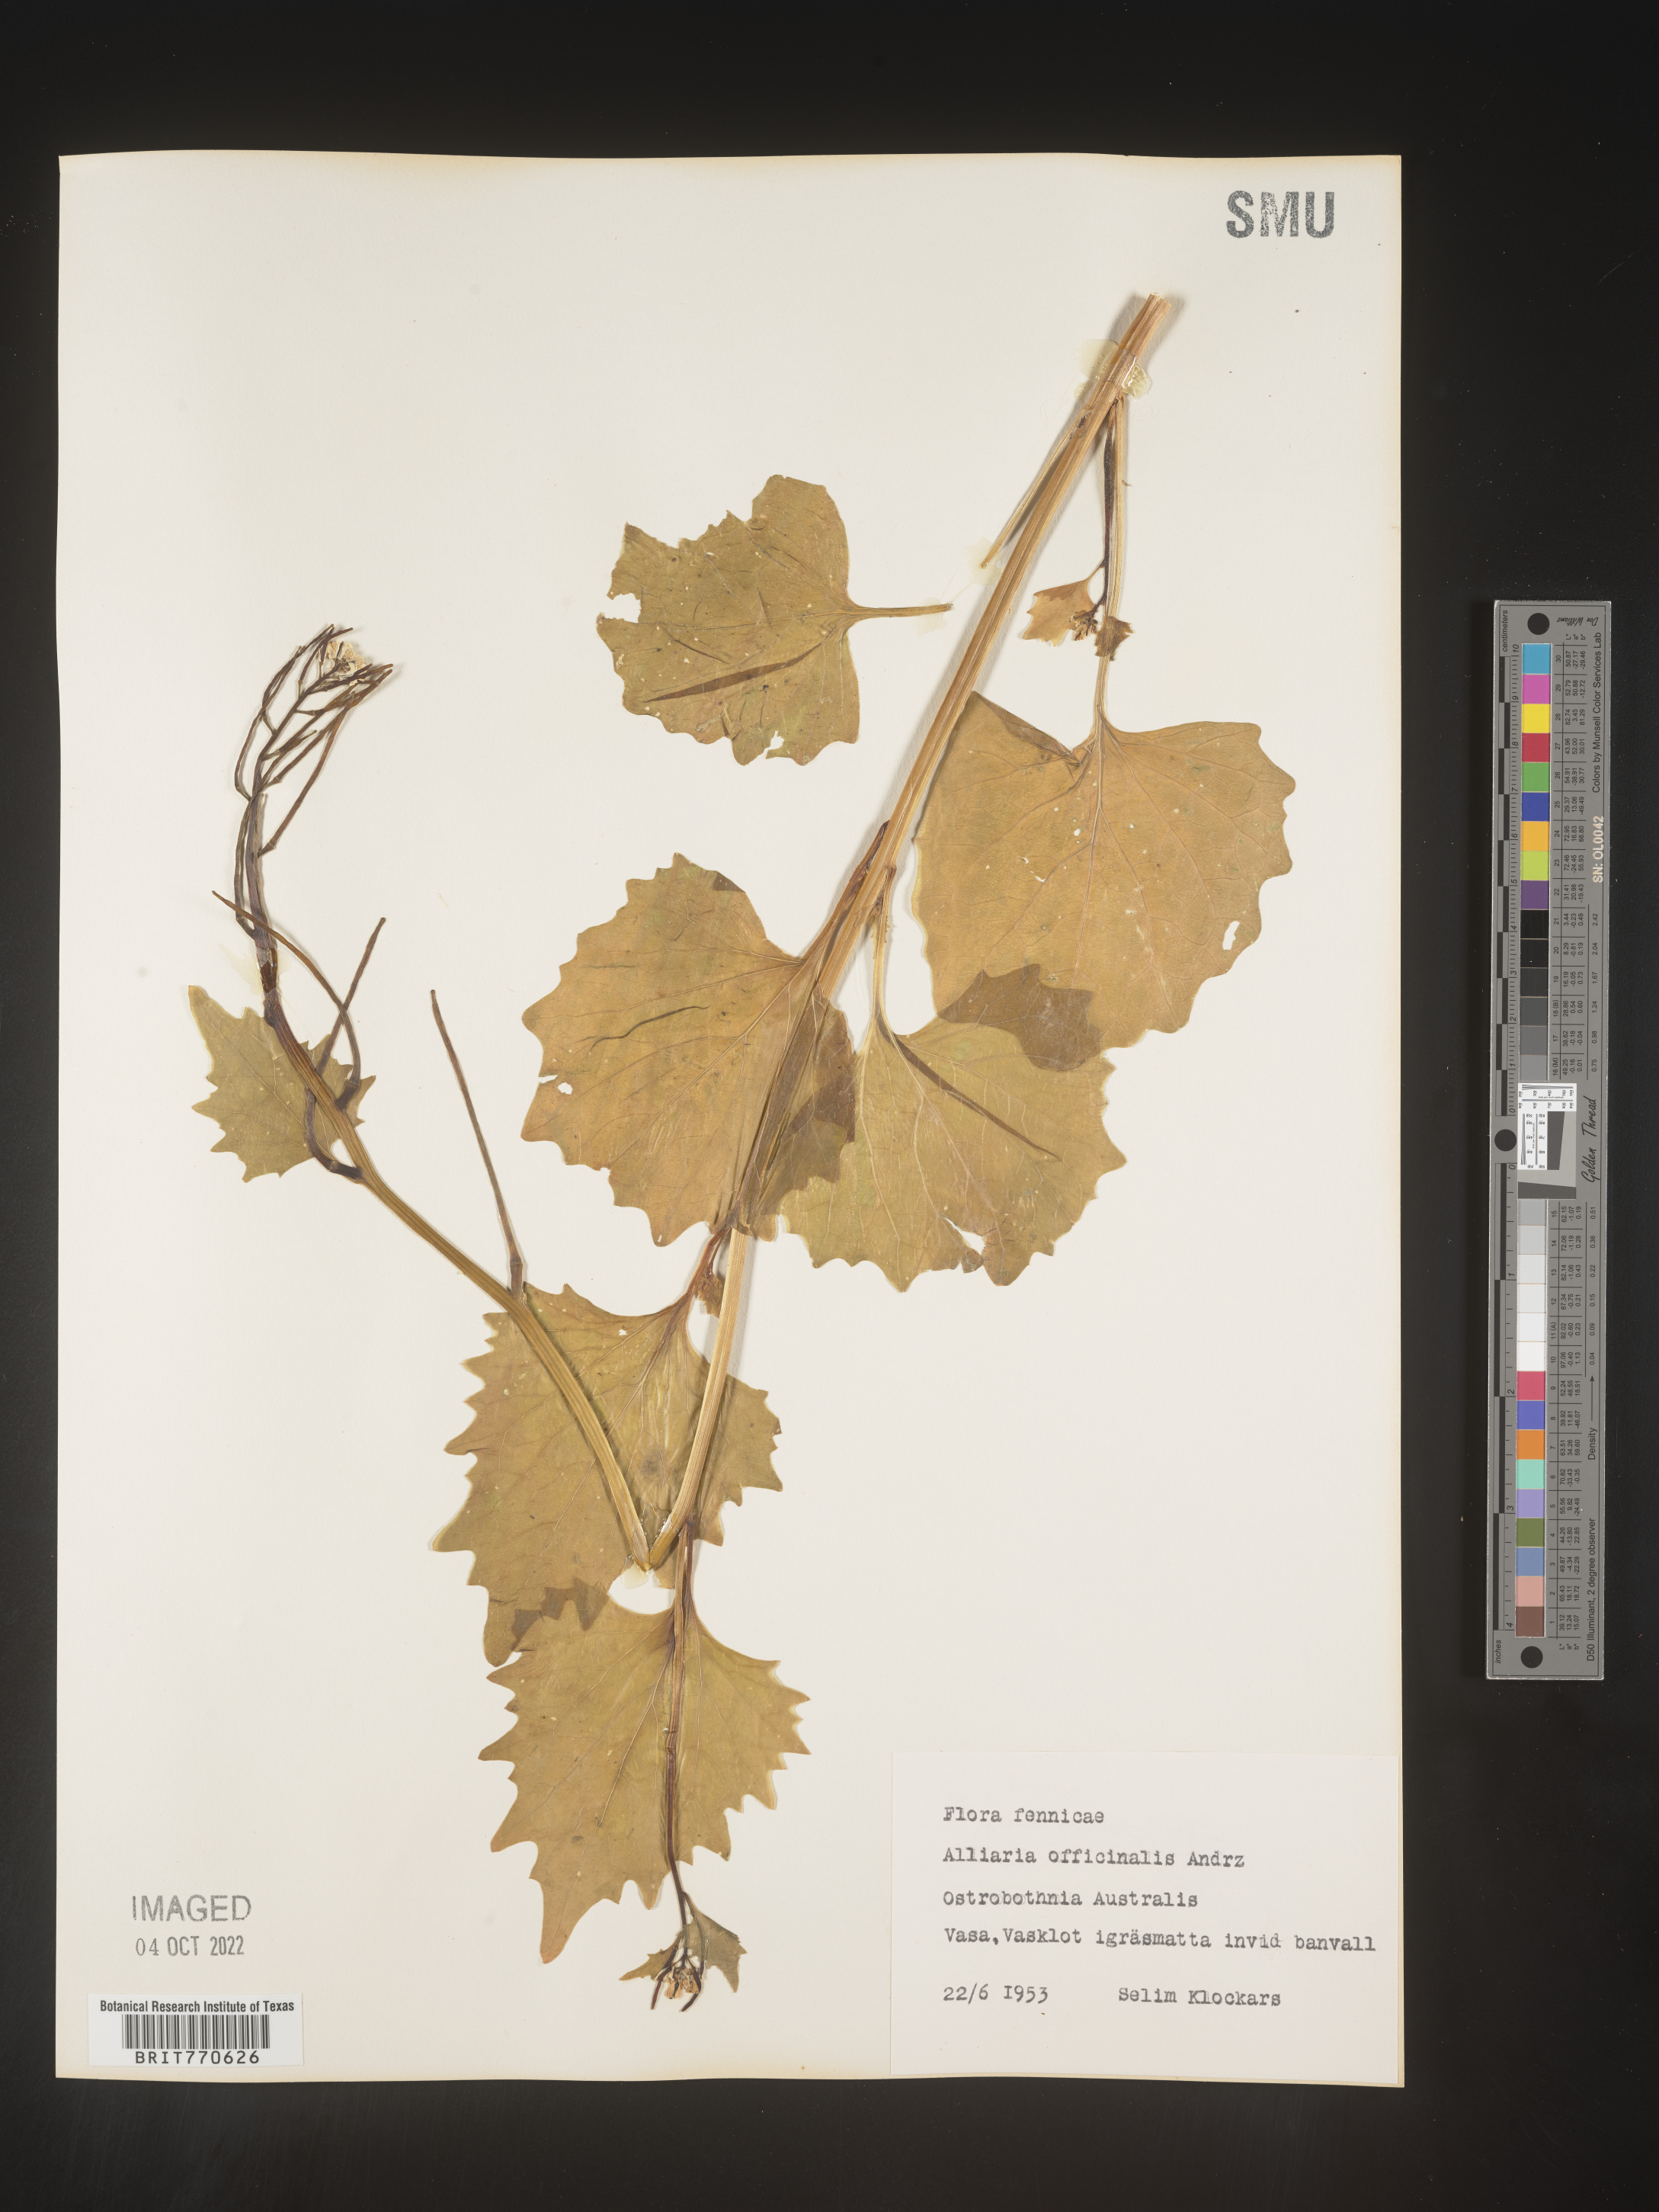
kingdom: Plantae
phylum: Tracheophyta
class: Magnoliopsida
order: Brassicales
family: Brassicaceae
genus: Alliaria
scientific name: Alliaria
